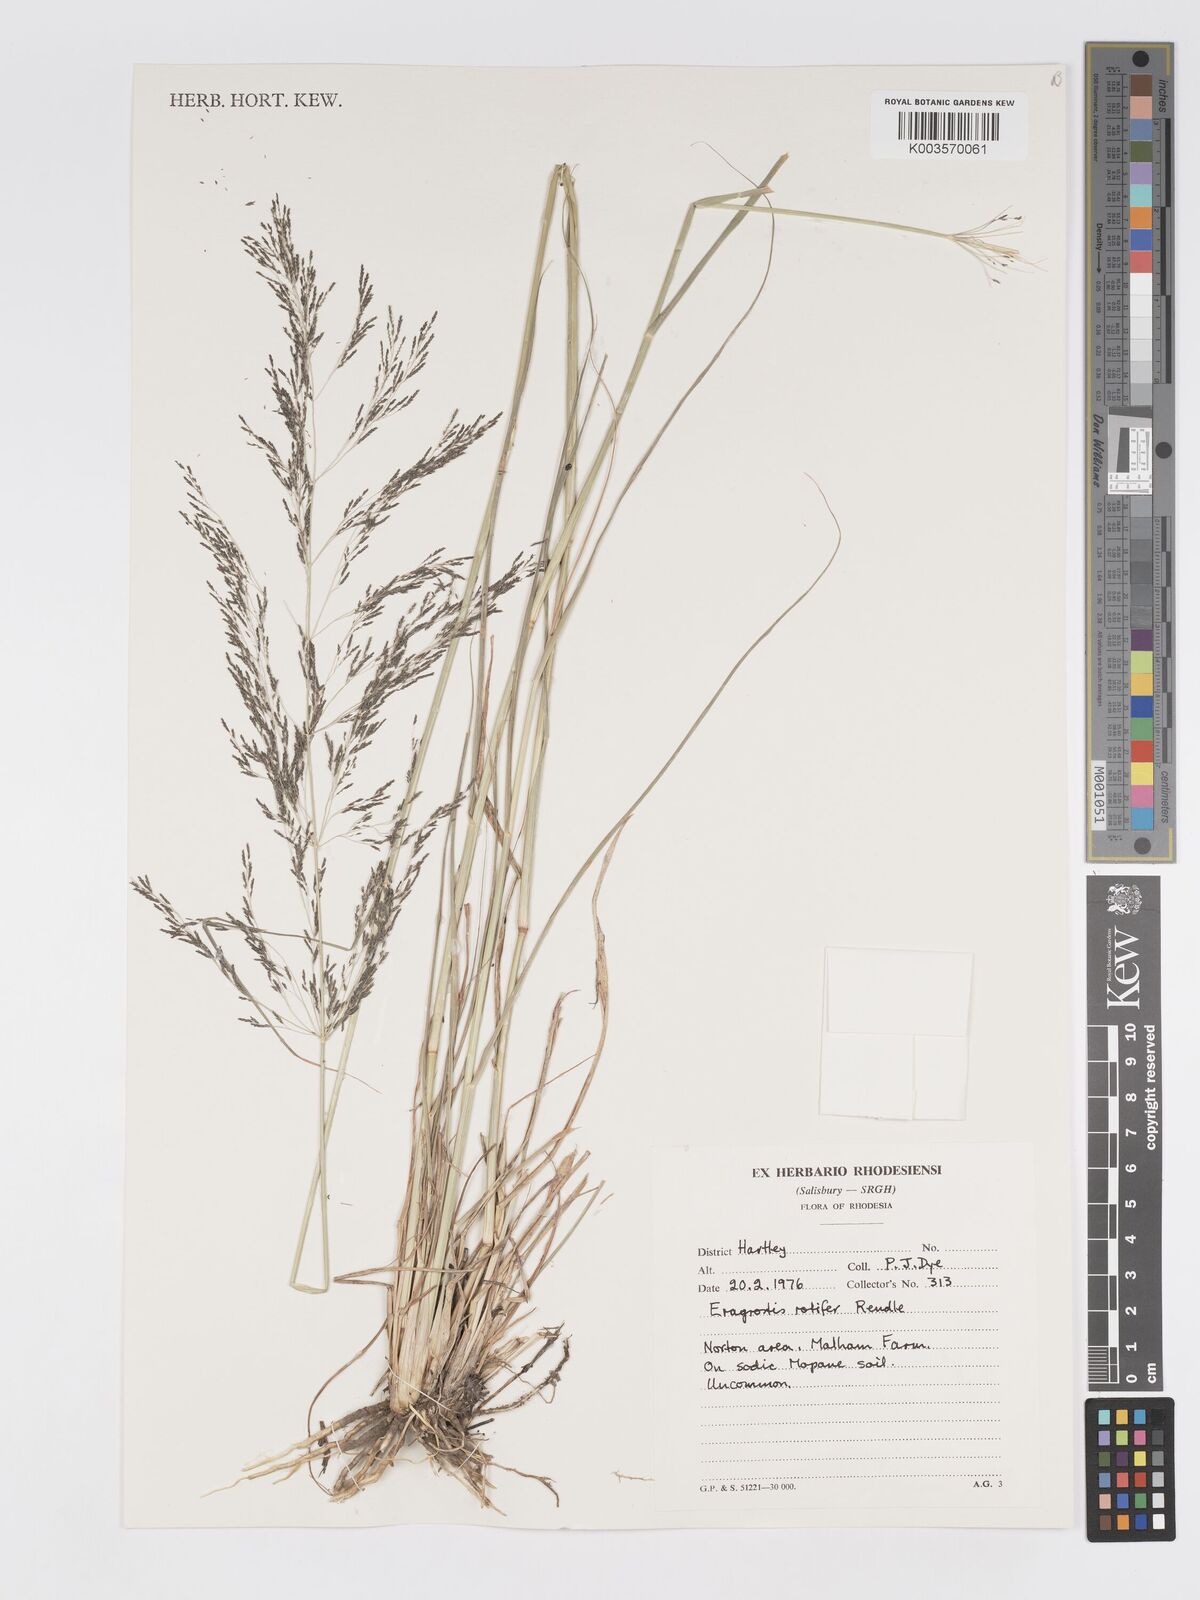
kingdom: Plantae
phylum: Tracheophyta
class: Liliopsida
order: Poales
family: Poaceae
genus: Eragrostis
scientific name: Eragrostis rotifer
